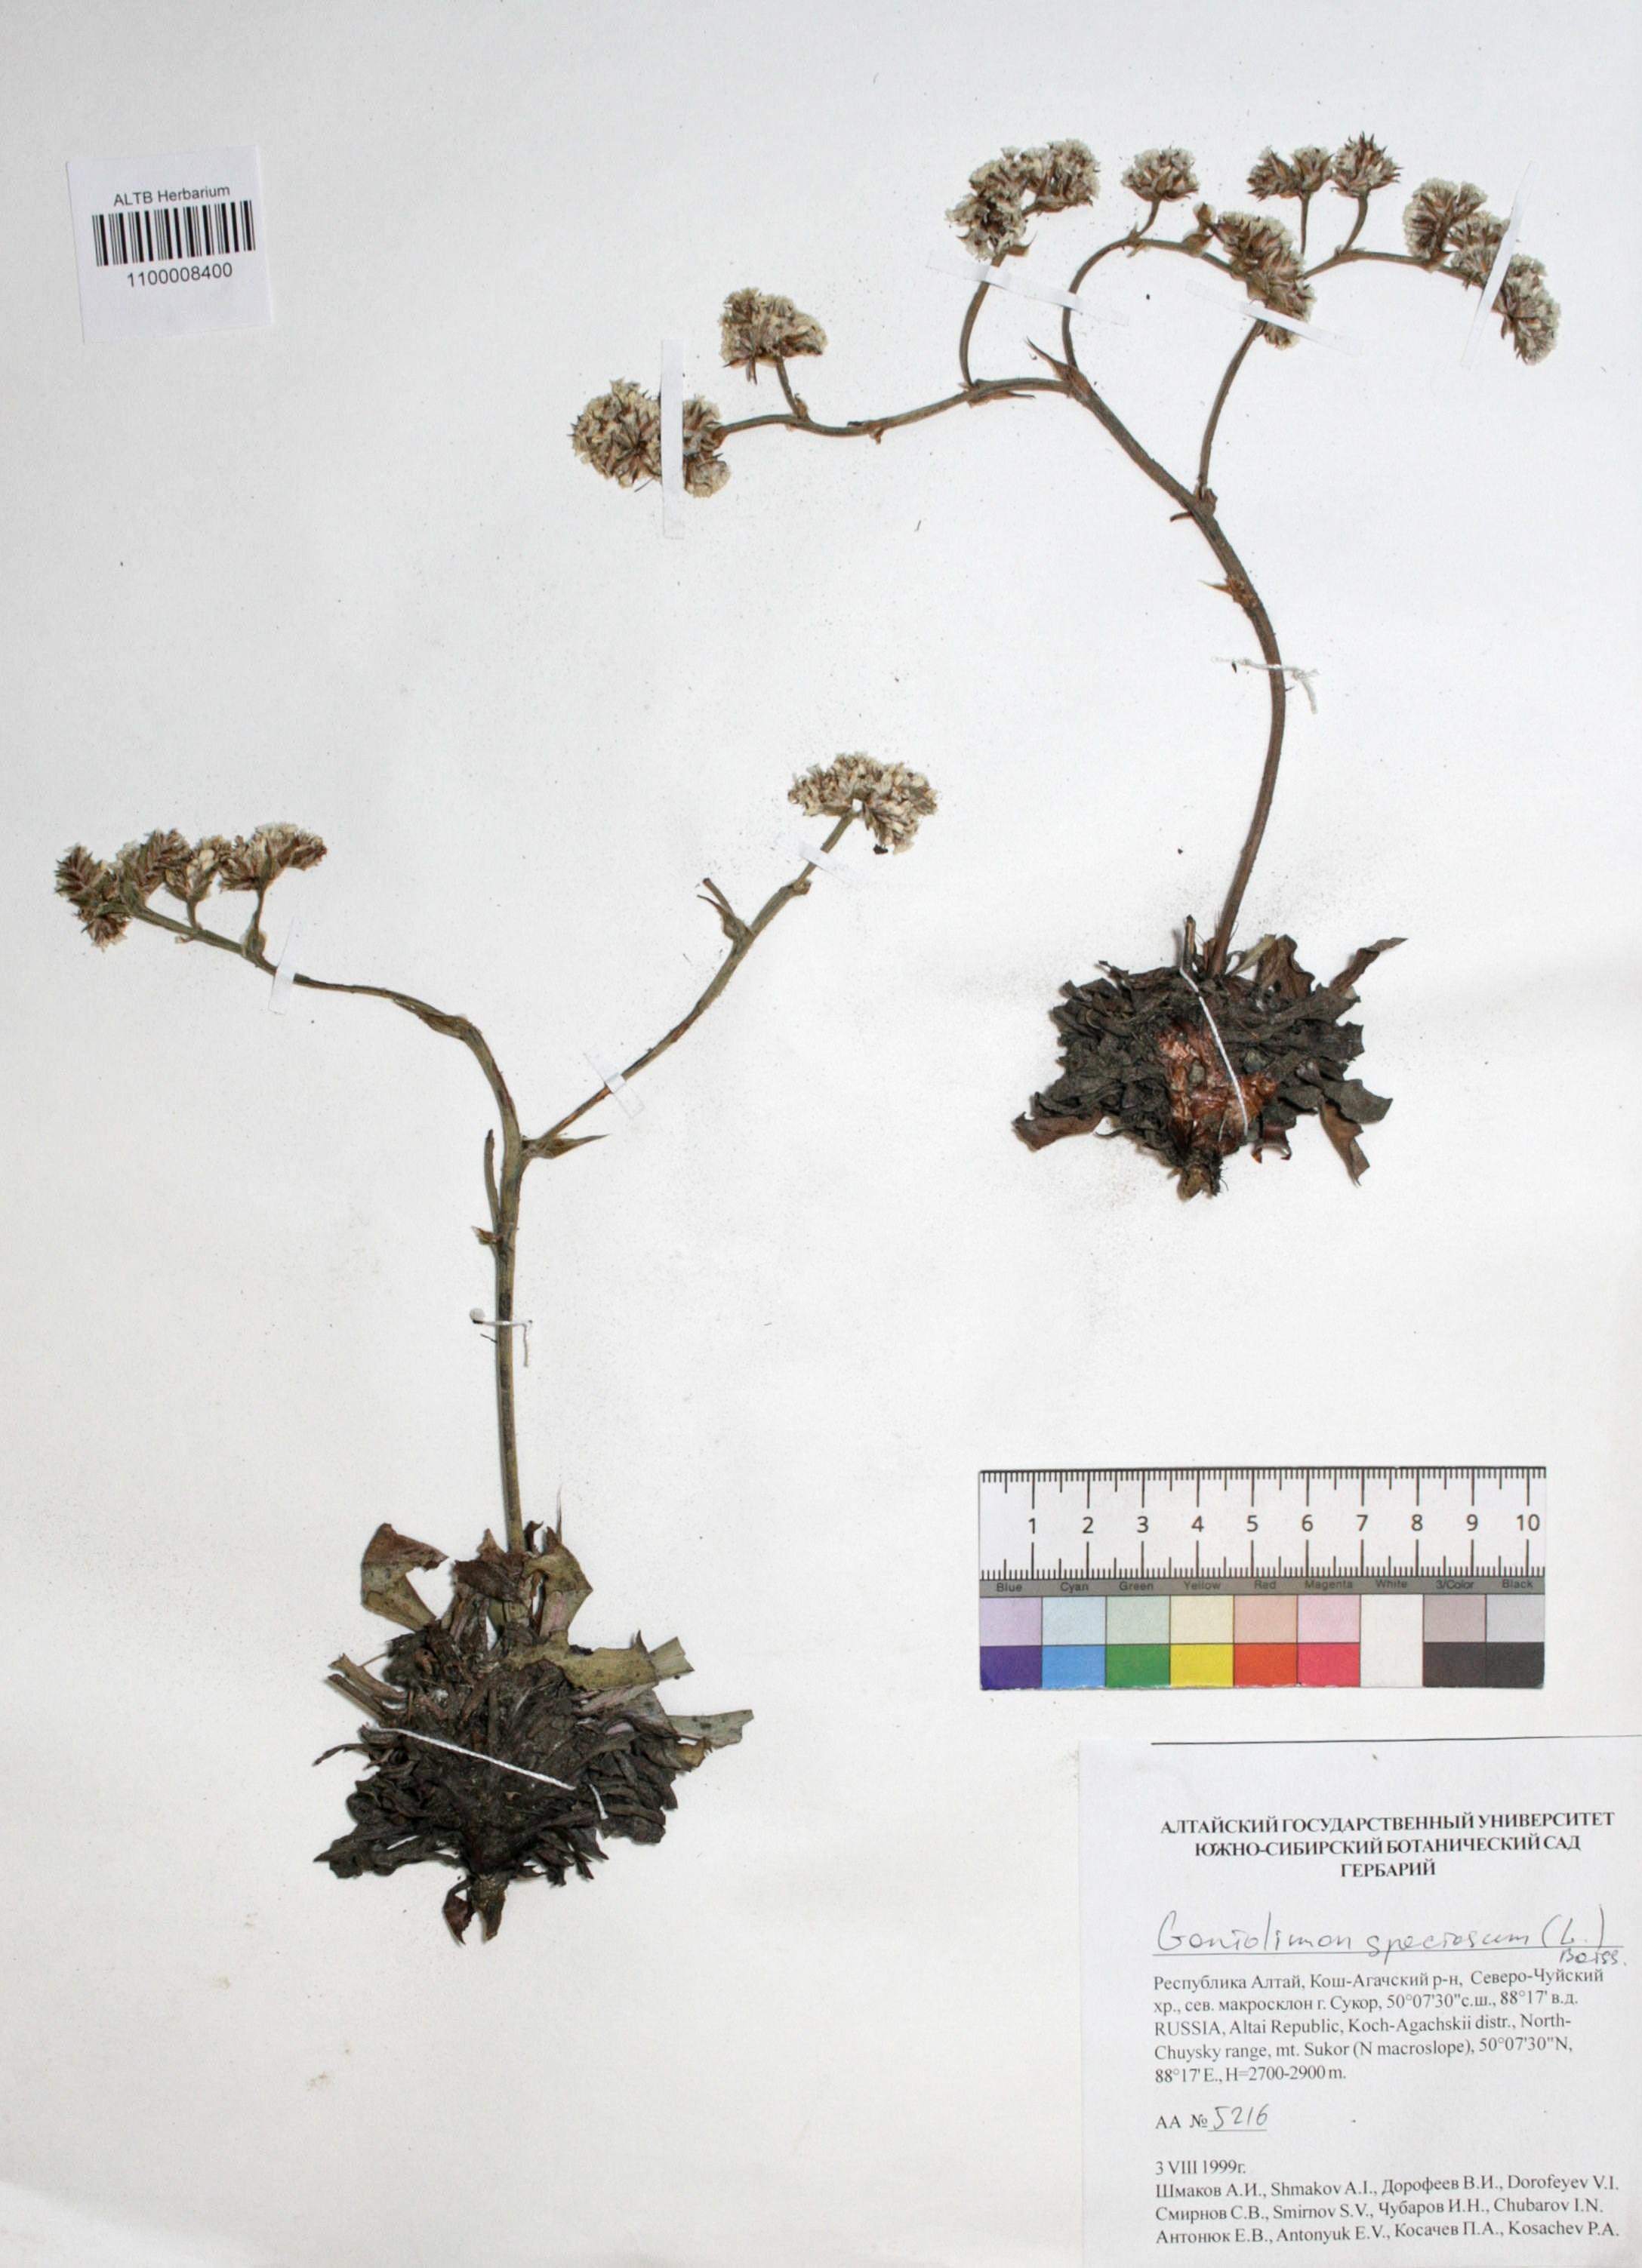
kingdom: Plantae
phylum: Tracheophyta
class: Magnoliopsida
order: Caryophyllales
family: Plumbaginaceae
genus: Goniolimon
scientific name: Goniolimon speciosum
